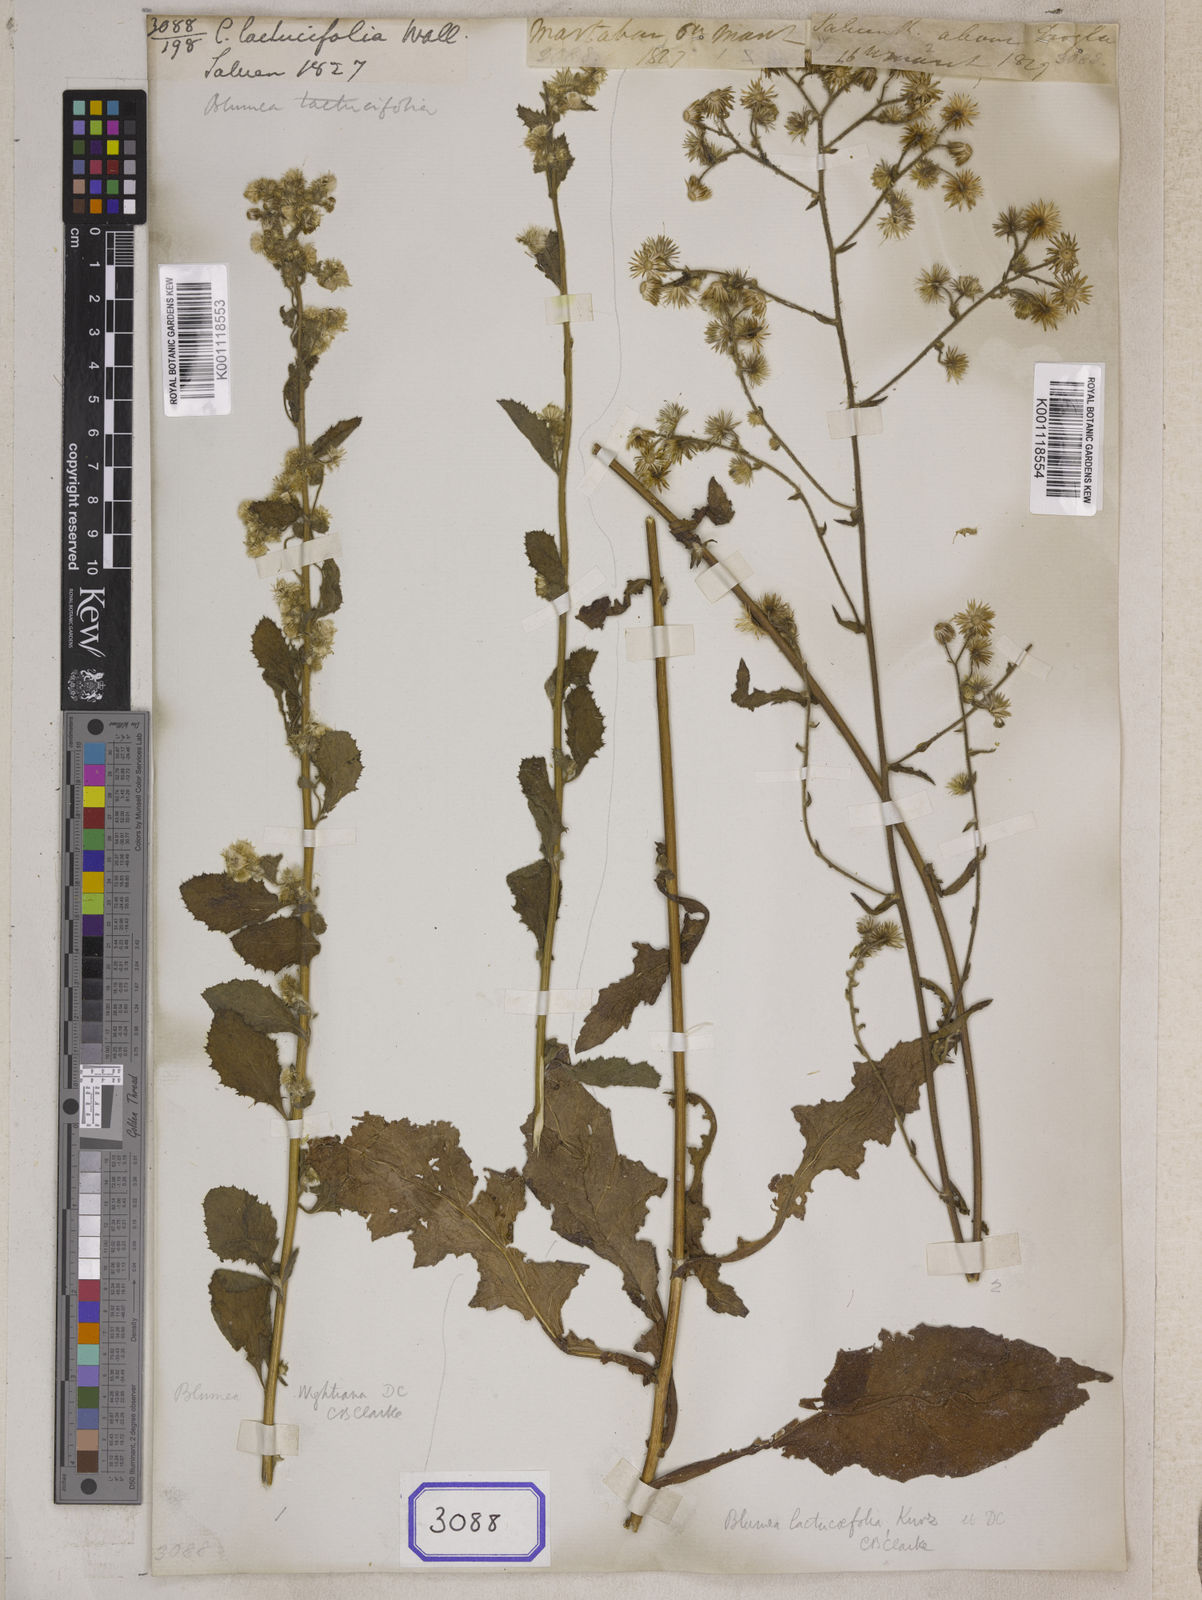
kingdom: Plantae
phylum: Tracheophyta
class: Magnoliopsida
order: Asterales
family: Asteraceae
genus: Blumea
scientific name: Blumea lacera
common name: Malay blumea
